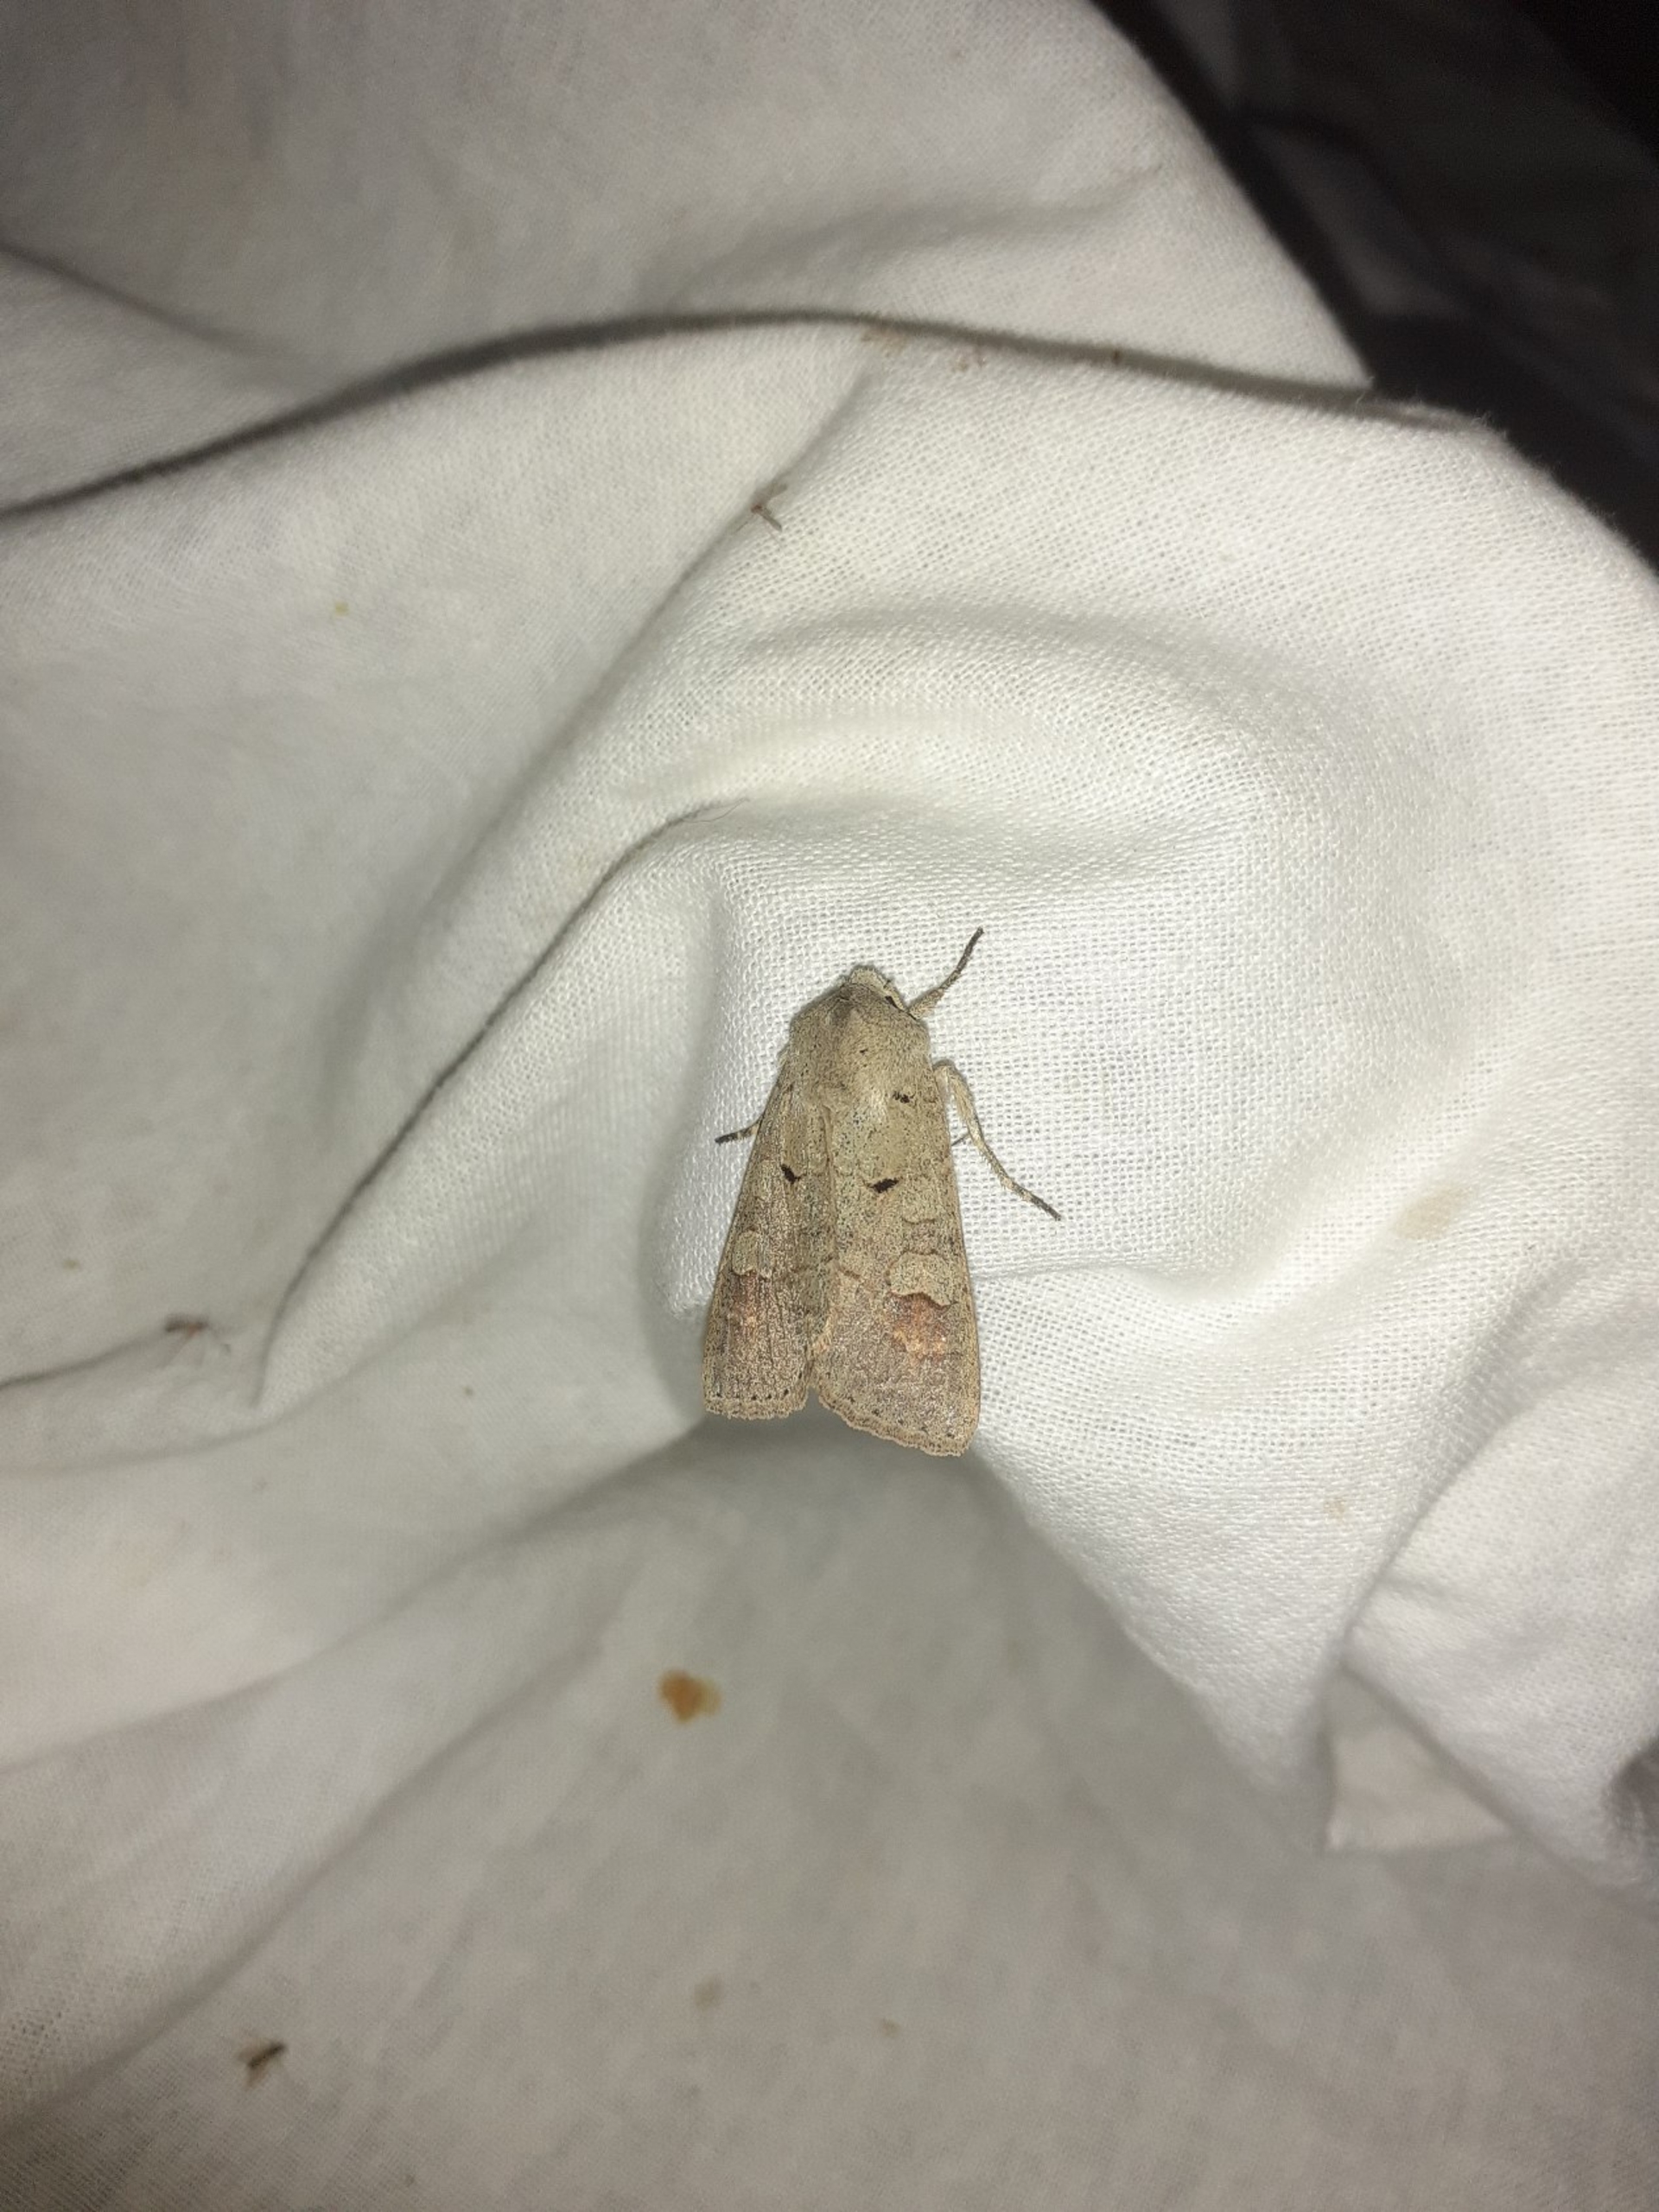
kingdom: Animalia
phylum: Arthropoda
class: Insecta
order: Lepidoptera
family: Noctuidae
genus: Ammoconia
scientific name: Ammoconia caecimacula
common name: Lådden ugle
